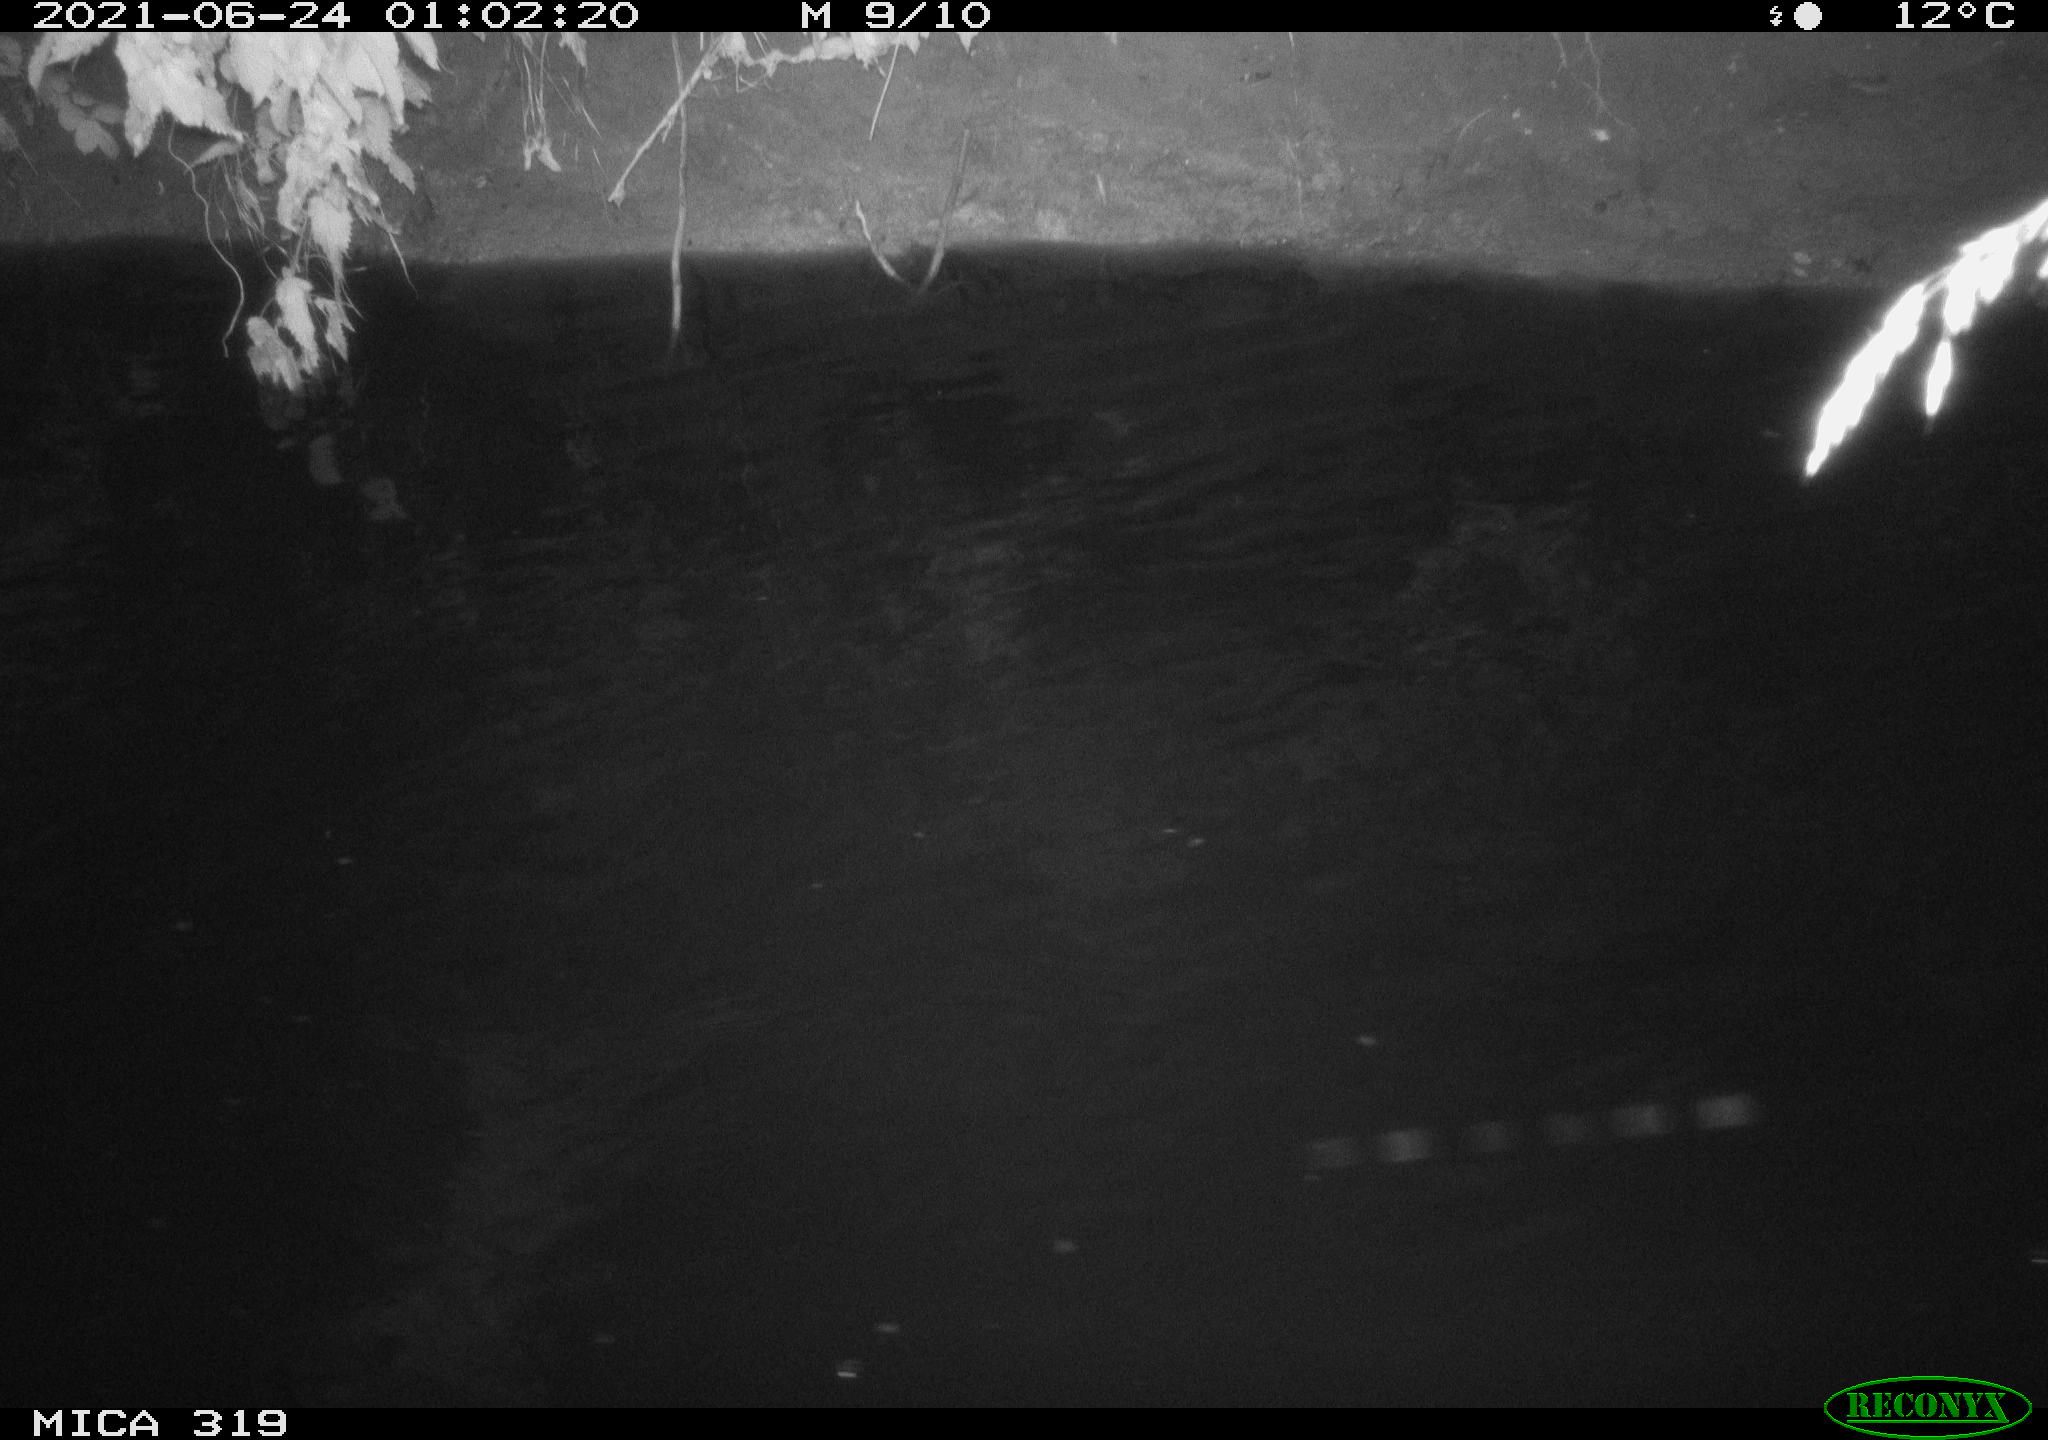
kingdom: Animalia
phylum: Chordata
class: Aves
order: Anseriformes
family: Anatidae
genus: Anas
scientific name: Anas platyrhynchos
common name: Mallard
